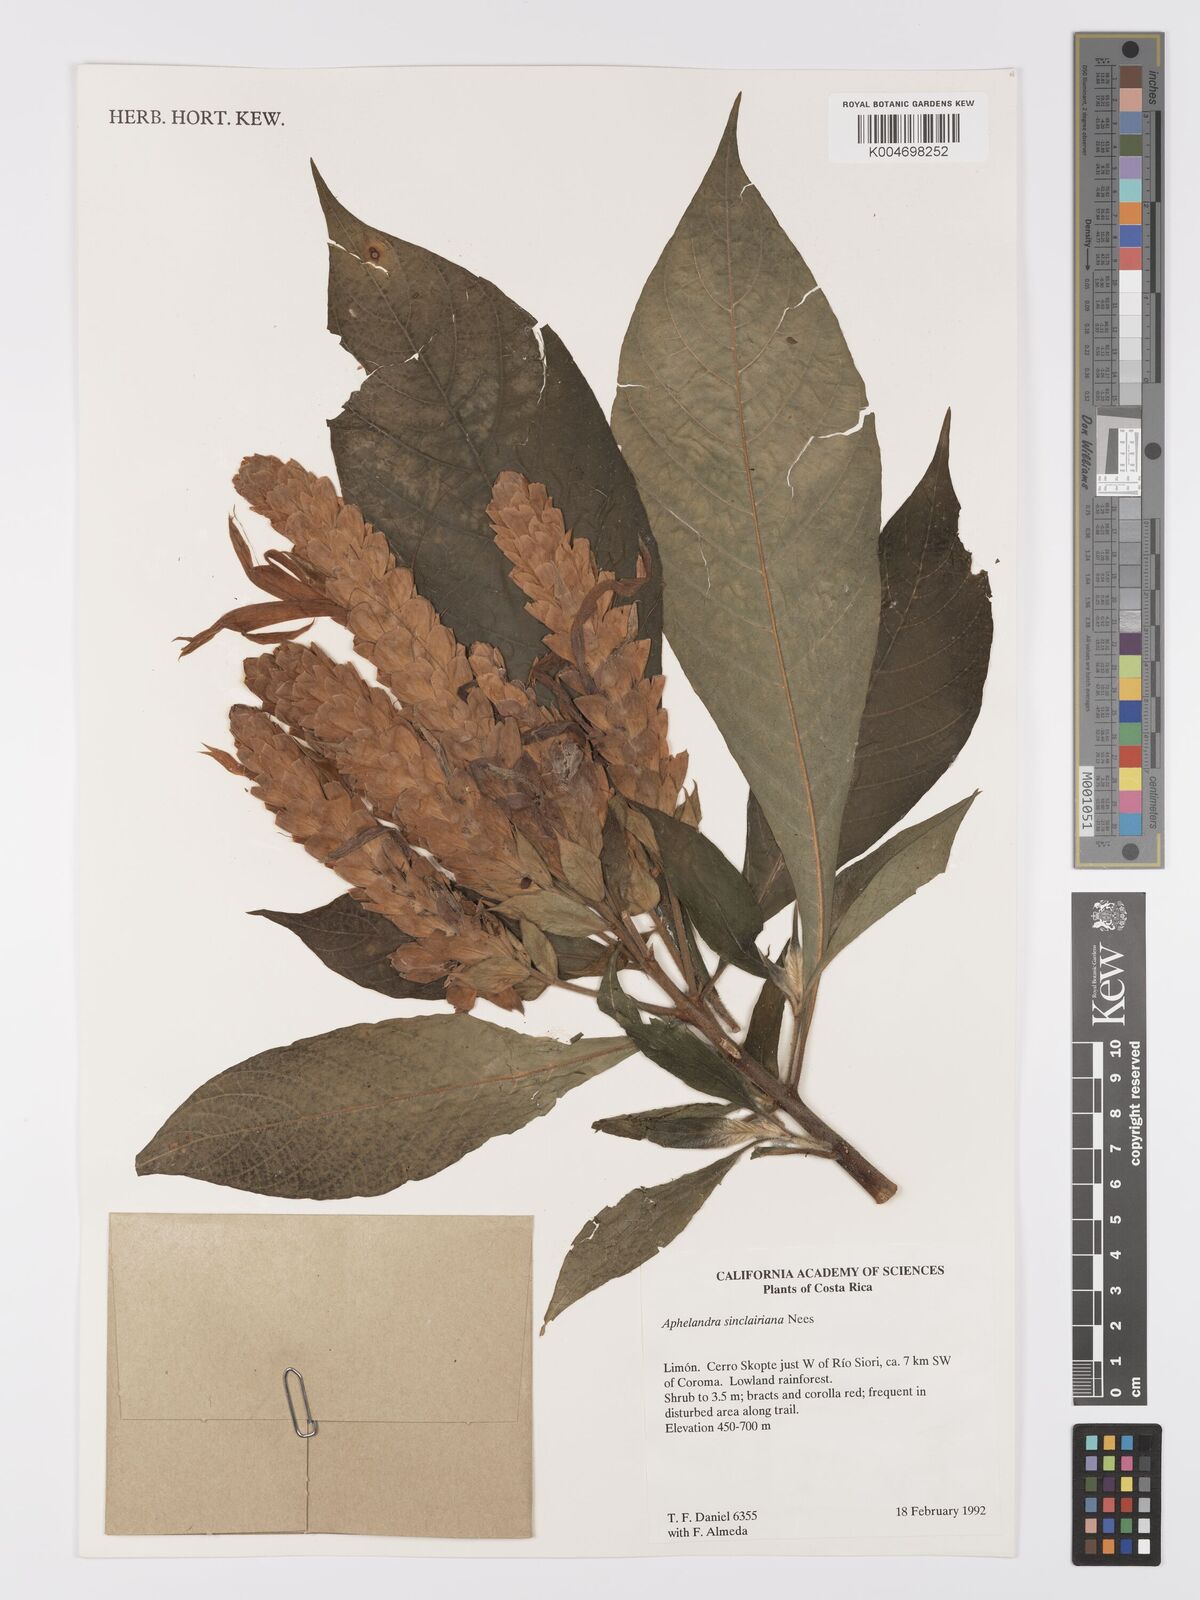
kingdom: Plantae
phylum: Tracheophyta
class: Magnoliopsida
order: Lamiales
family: Acanthaceae
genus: Aphelandra
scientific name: Aphelandra sinclairiana
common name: Coral aphelandra
